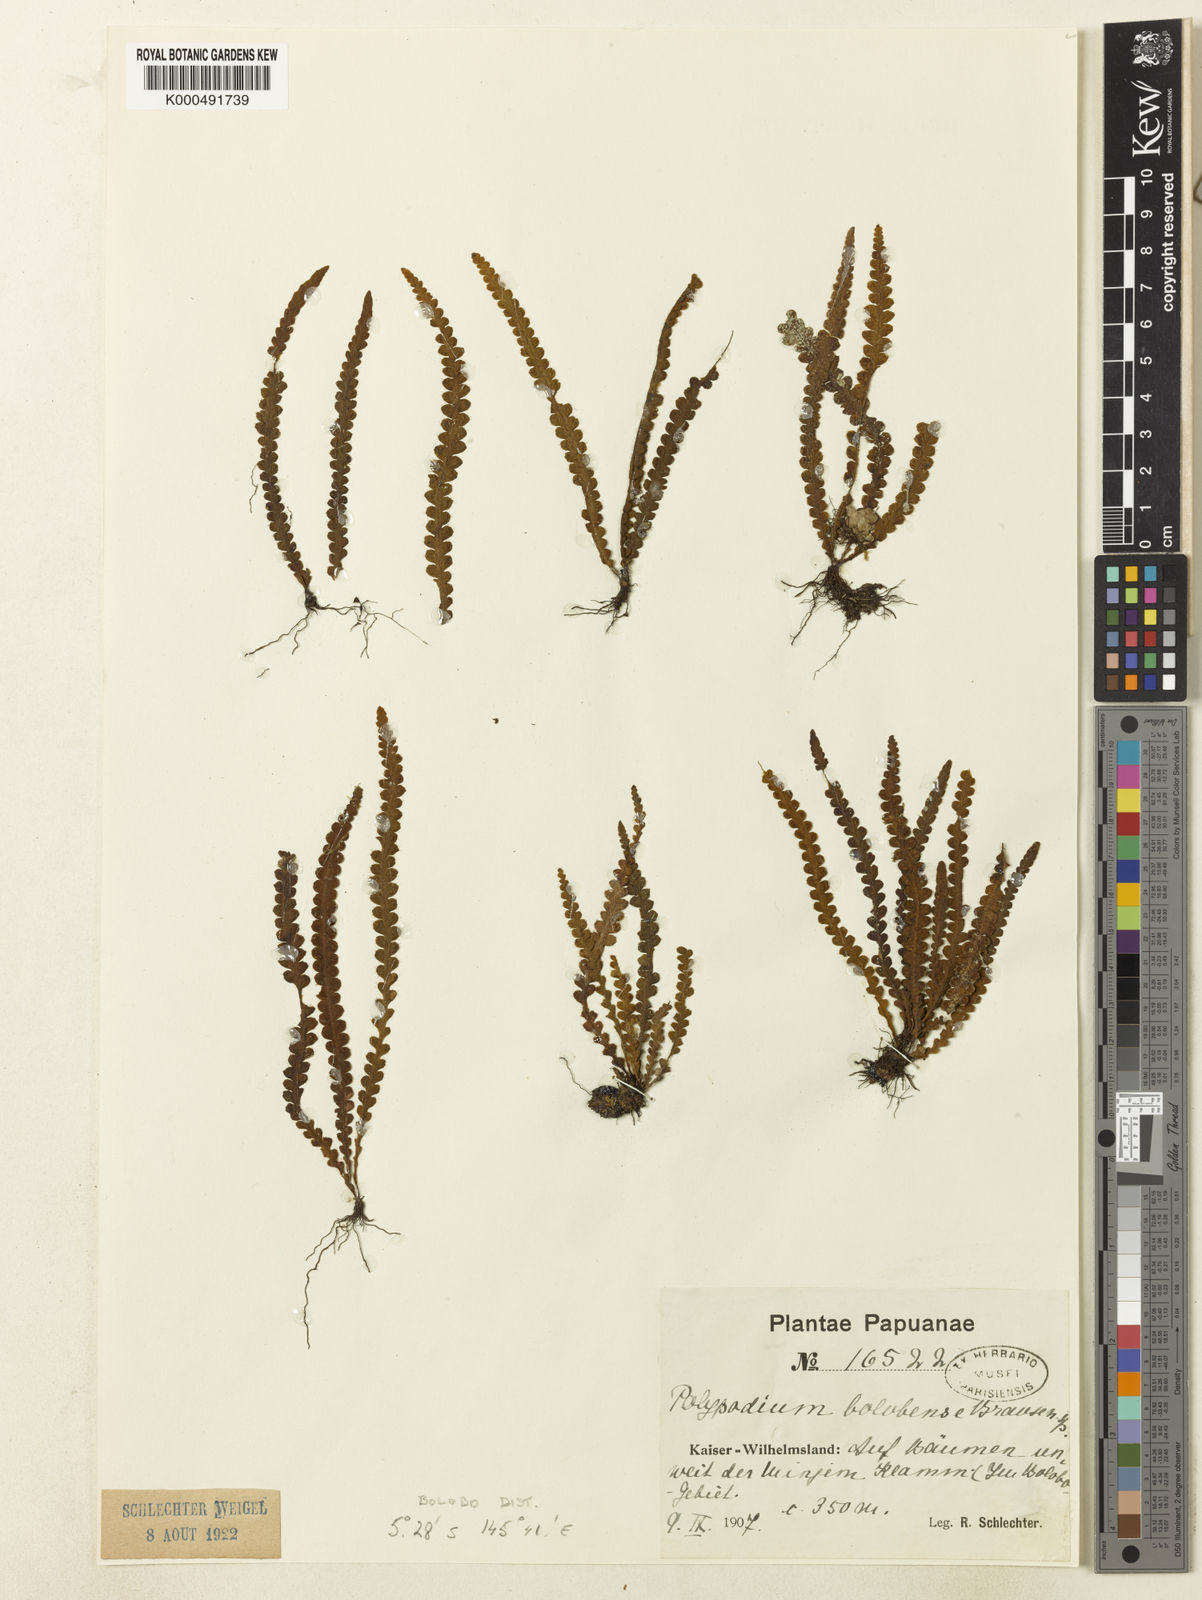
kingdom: Plantae
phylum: Tracheophyta
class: Polypodiopsida
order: Polypodiales
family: Polypodiaceae
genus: Prosaptia
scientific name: Prosaptia bolobensis
